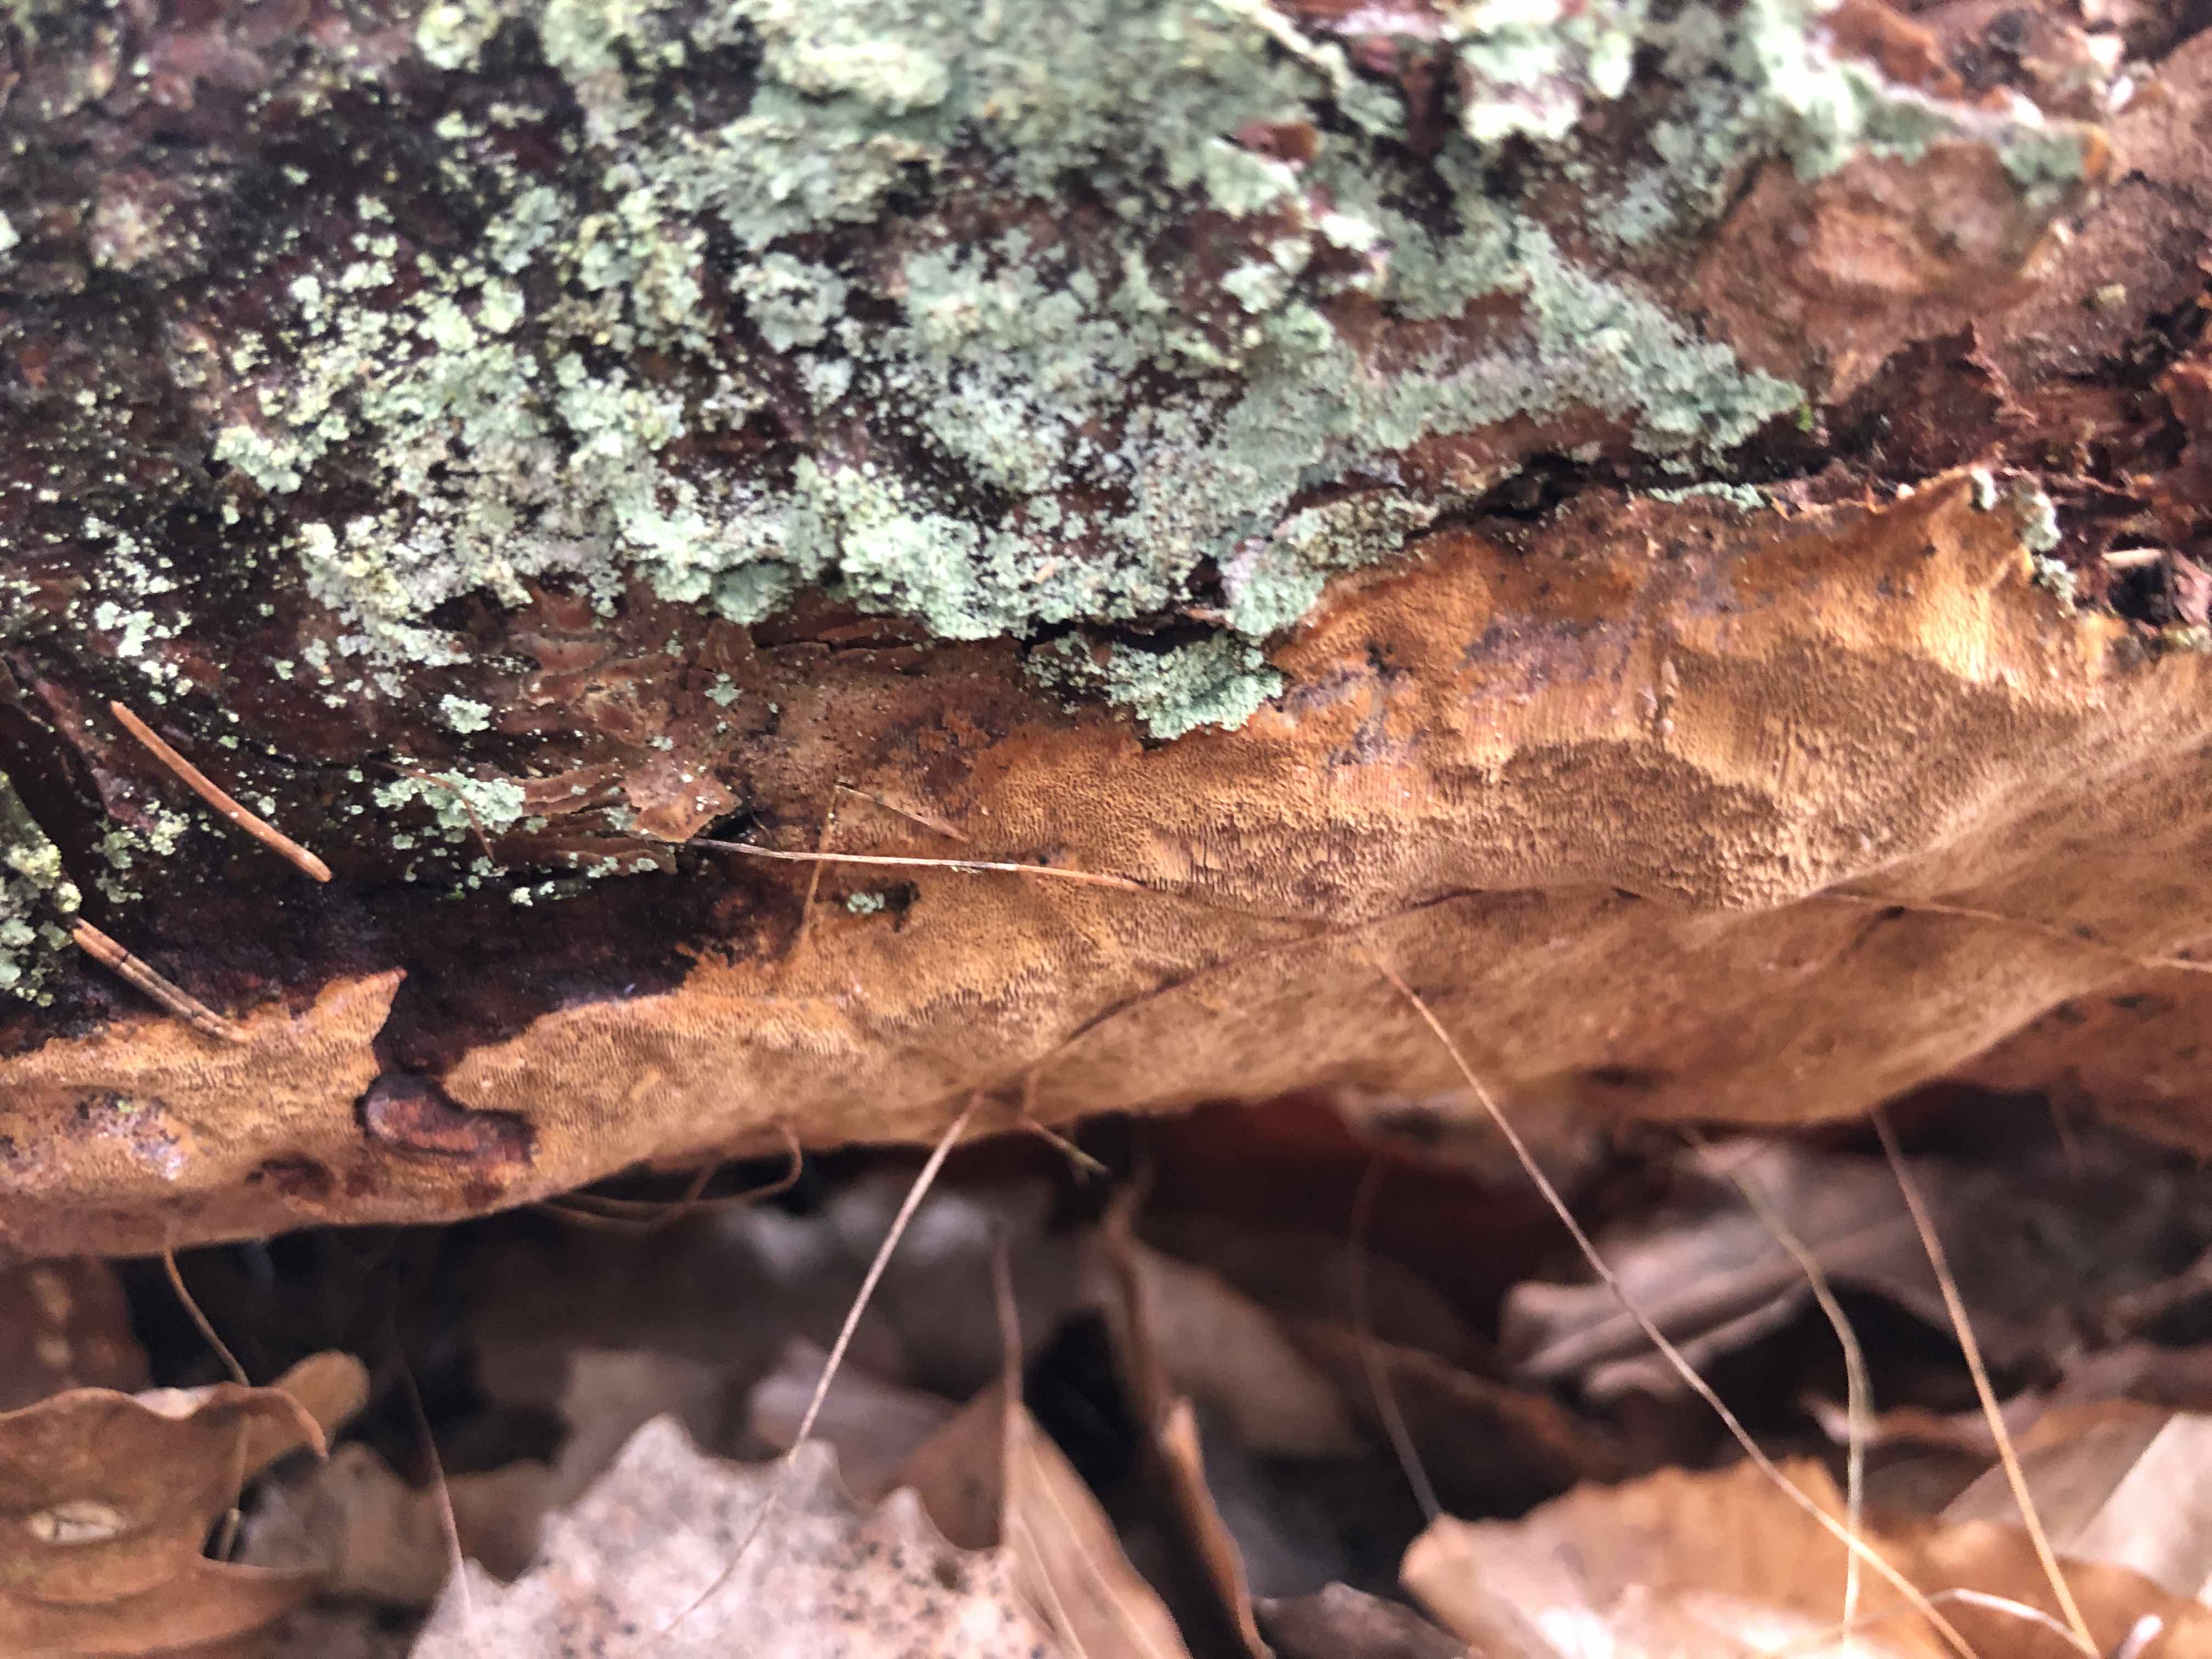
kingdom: Fungi
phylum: Basidiomycota
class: Agaricomycetes
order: Hymenochaetales
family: Hymenochaetaceae
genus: Fuscoporia
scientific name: Fuscoporia ferrea
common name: skorpe-ildporesvamp
